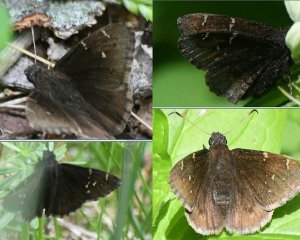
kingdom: Animalia
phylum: Arthropoda
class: Insecta
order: Lepidoptera
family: Hesperiidae
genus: Autochton
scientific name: Autochton
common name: Northern Cloudywing
